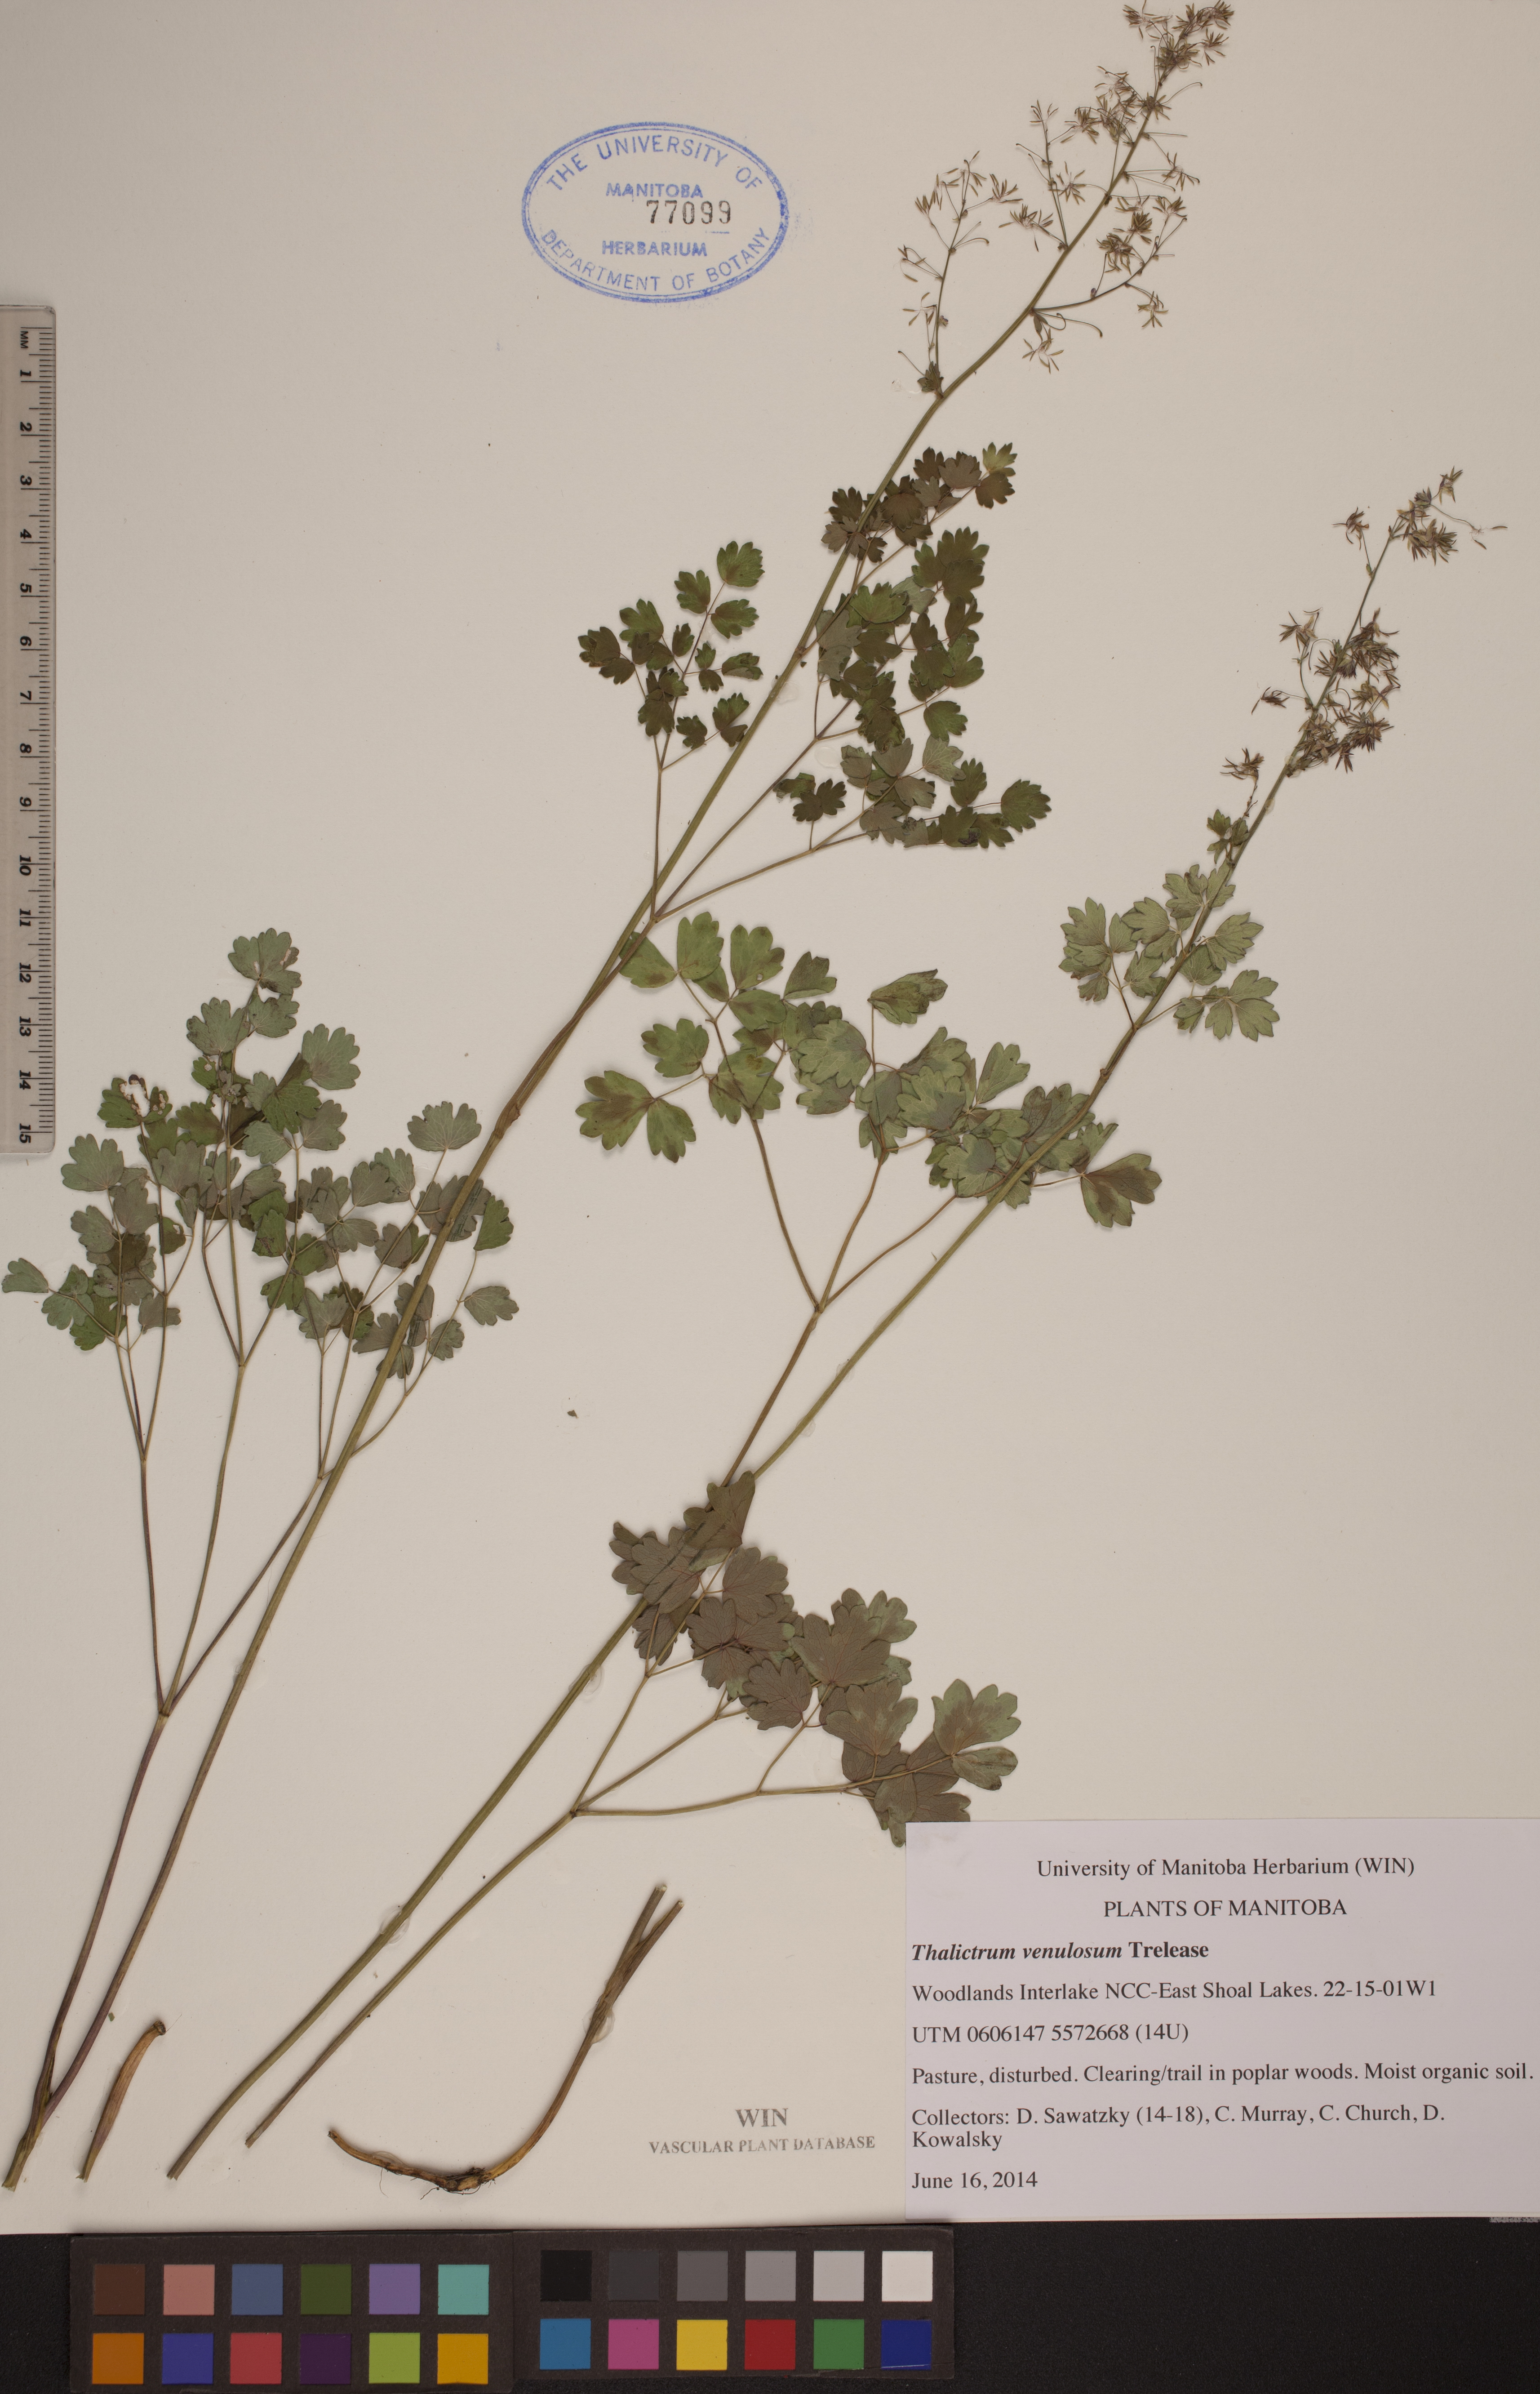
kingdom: Plantae
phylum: Tracheophyta
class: Magnoliopsida
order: Ranunculales
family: Ranunculaceae
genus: Thalictrum
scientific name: Thalictrum venulosum
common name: Early meadow-rue
